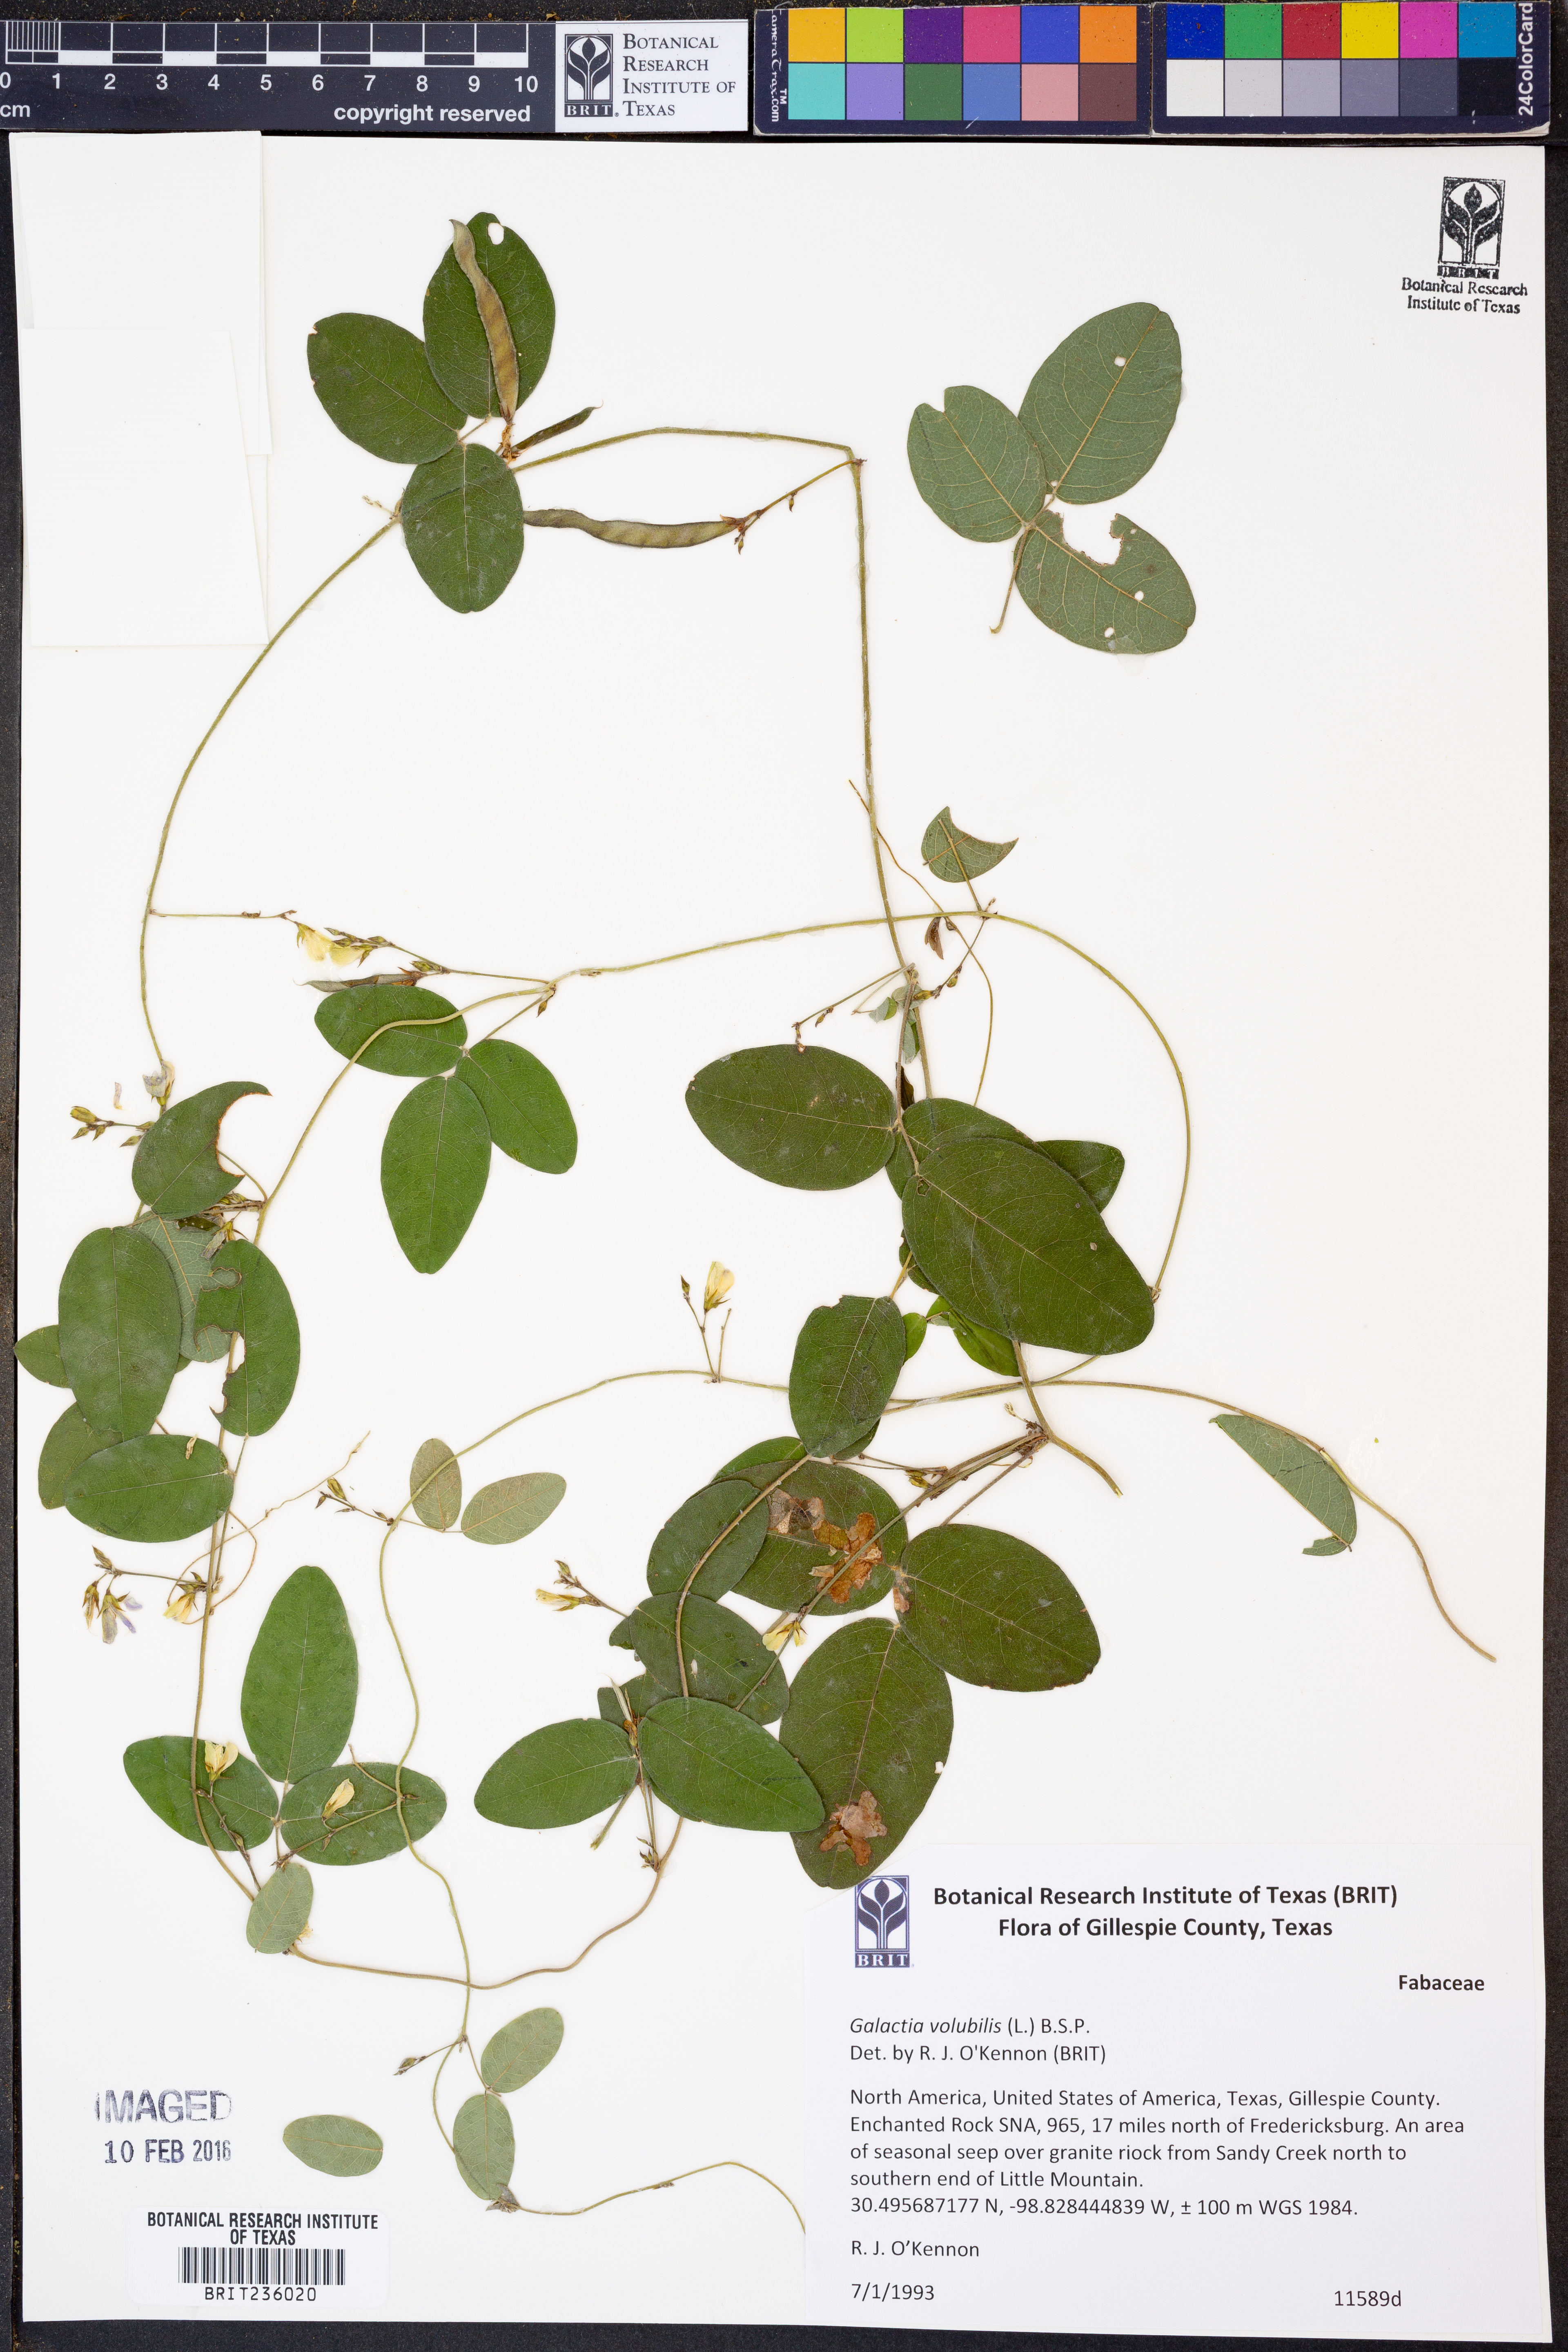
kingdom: Plantae
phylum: Tracheophyta
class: Magnoliopsida
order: Fabales
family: Fabaceae
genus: Galactia
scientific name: Galactia volubilis
